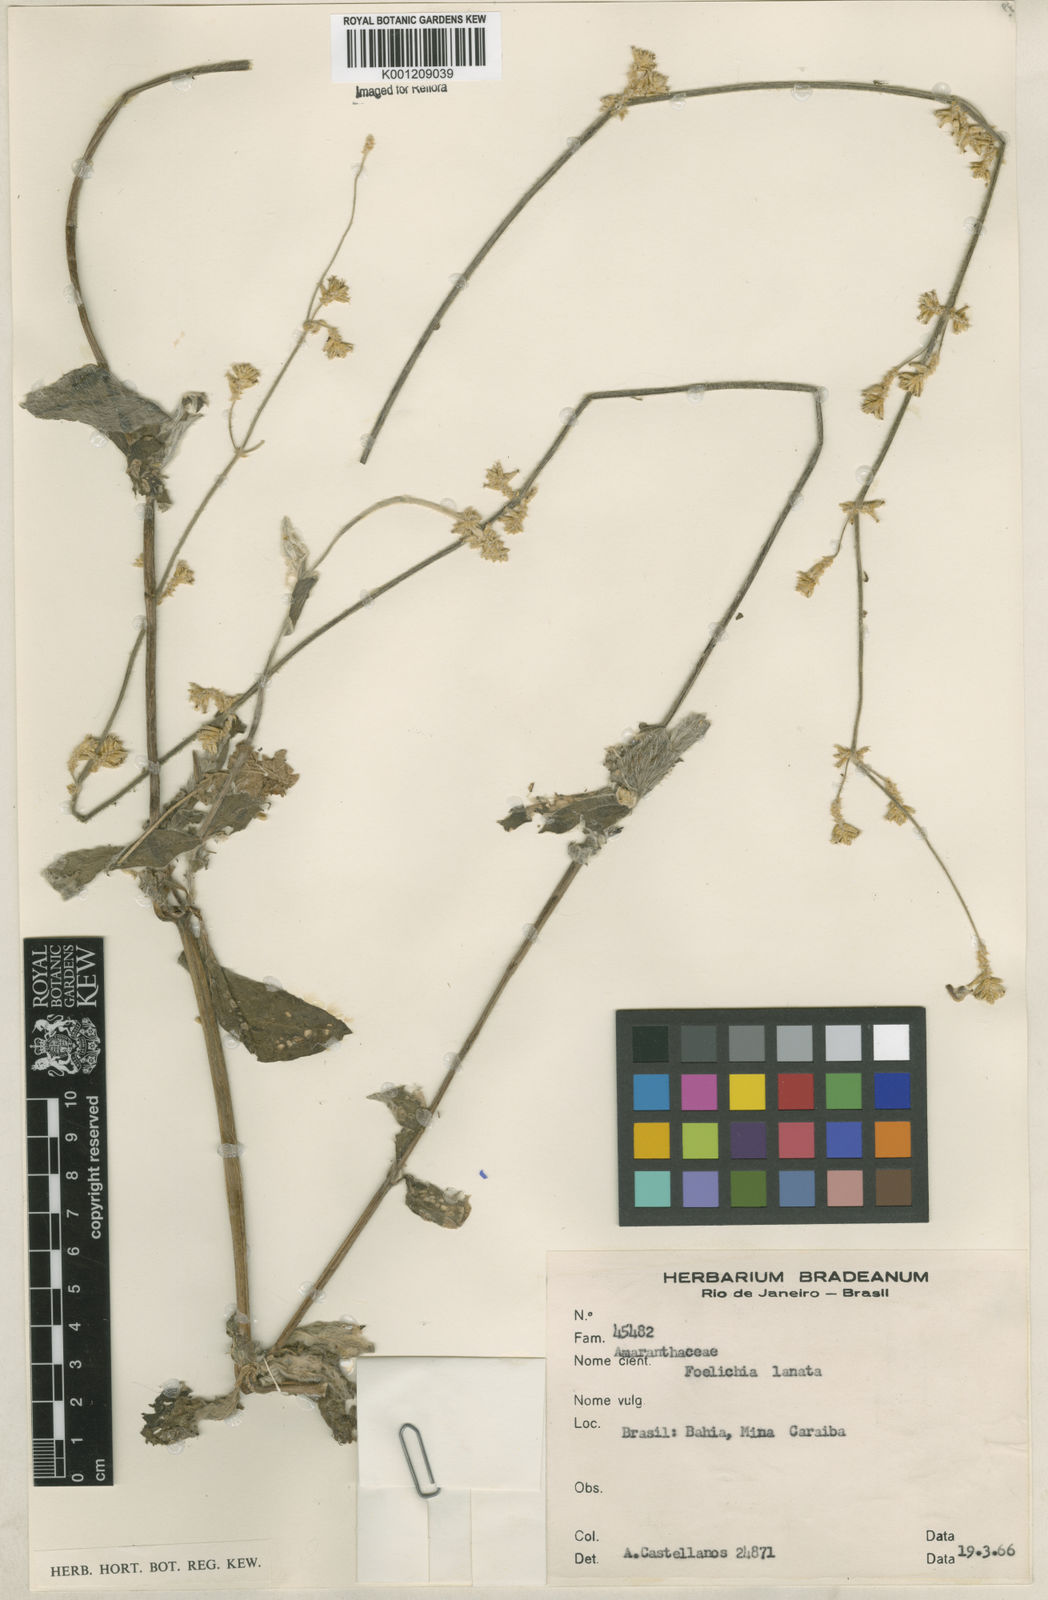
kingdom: Plantae
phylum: Tracheophyta
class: Magnoliopsida
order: Caryophyllales
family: Amaranthaceae
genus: Froelichia
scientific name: Froelichia humboldtiana
